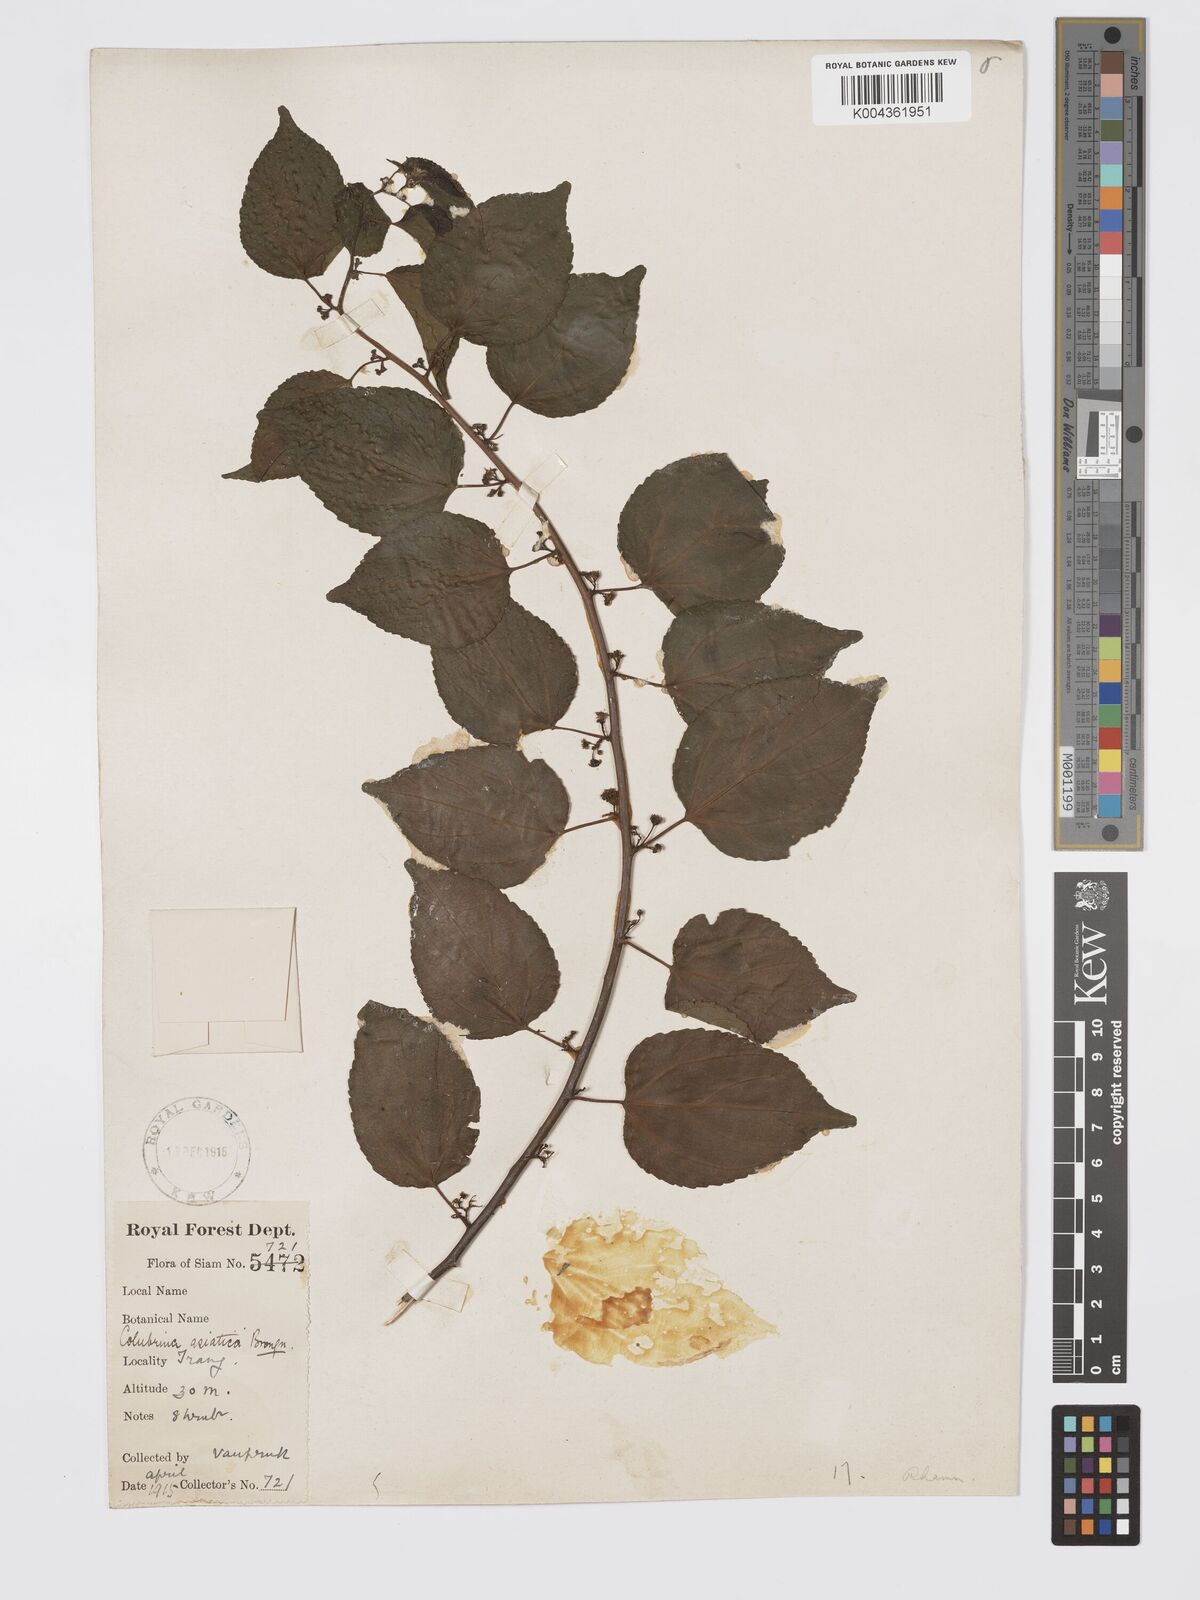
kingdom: Plantae
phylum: Tracheophyta
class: Magnoliopsida
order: Rosales
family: Rhamnaceae
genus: Colubrina
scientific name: Colubrina asiatica
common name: Asian nakedwood
